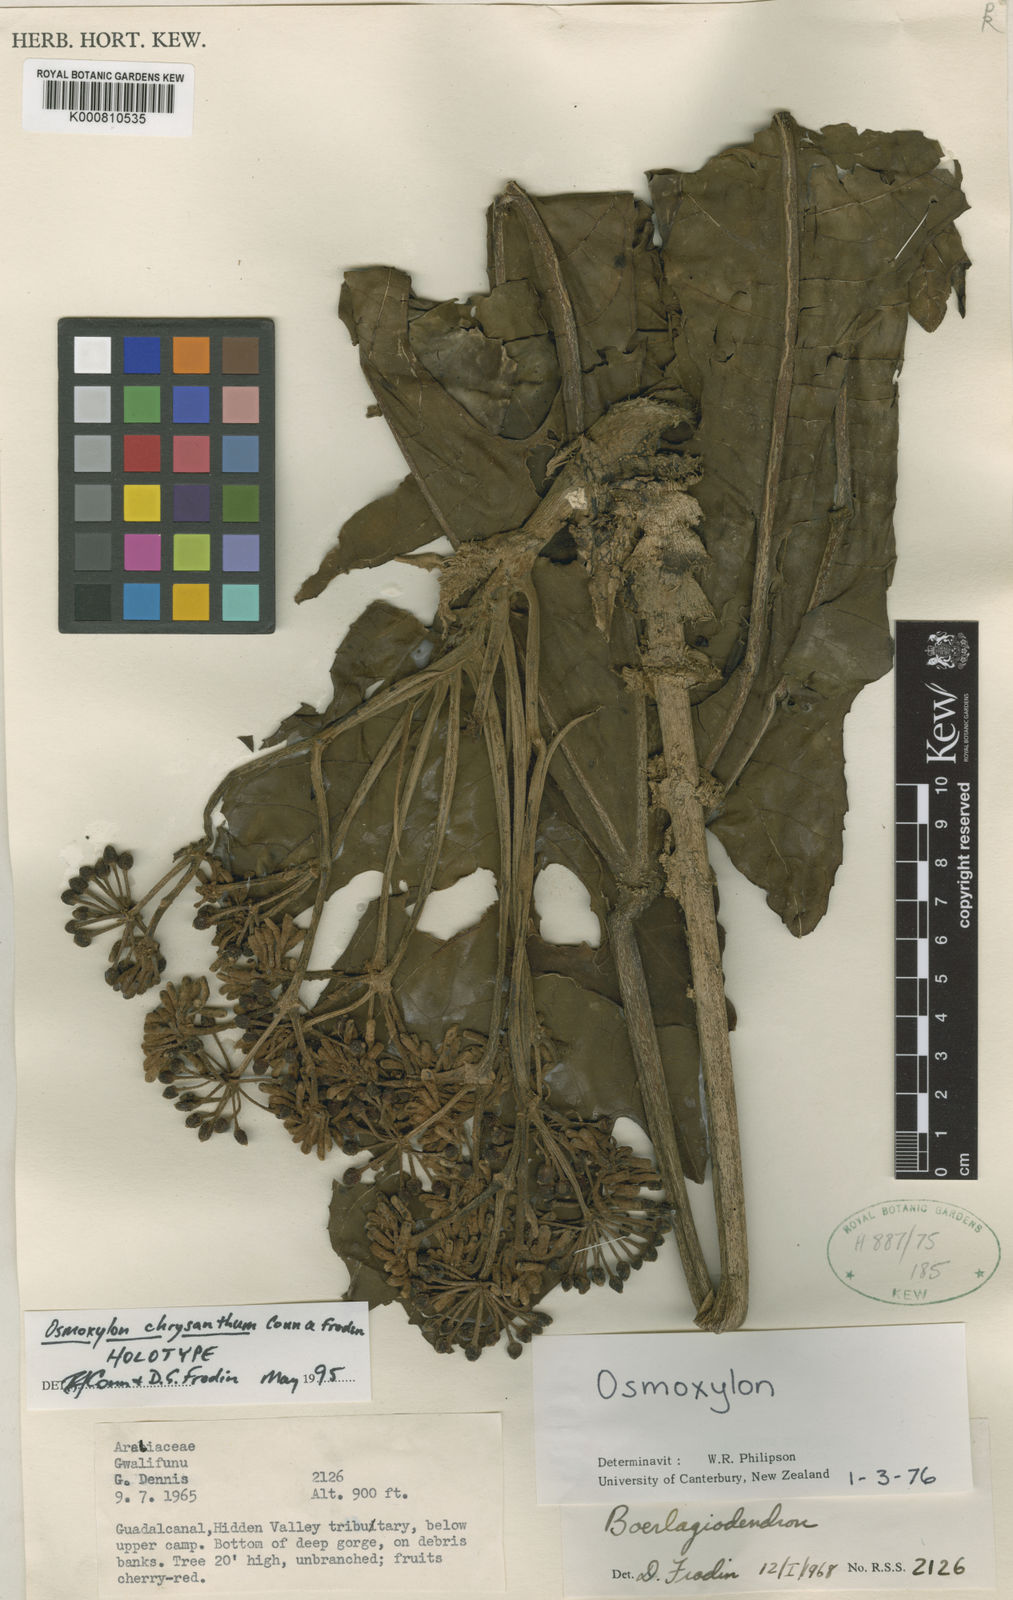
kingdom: Plantae
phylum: Tracheophyta
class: Magnoliopsida
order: Apiales
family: Araliaceae
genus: Osmoxylon
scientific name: Osmoxylon chrysanthum
